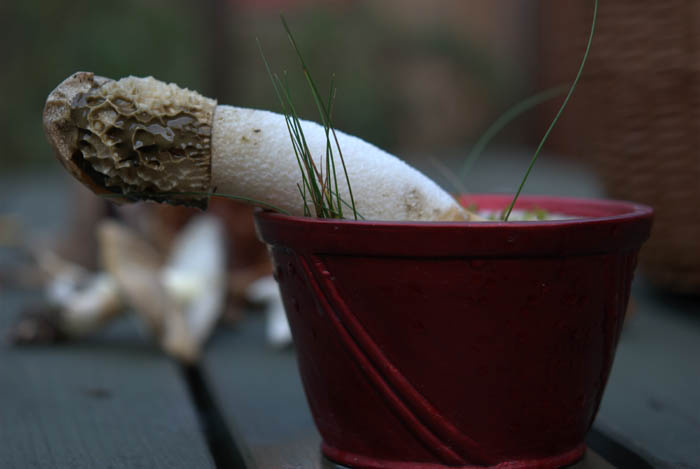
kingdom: Fungi
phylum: Basidiomycota
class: Agaricomycetes
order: Phallales
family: Phallaceae
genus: Phallus
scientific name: Phallus impudicus
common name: almindelig stinksvamp
